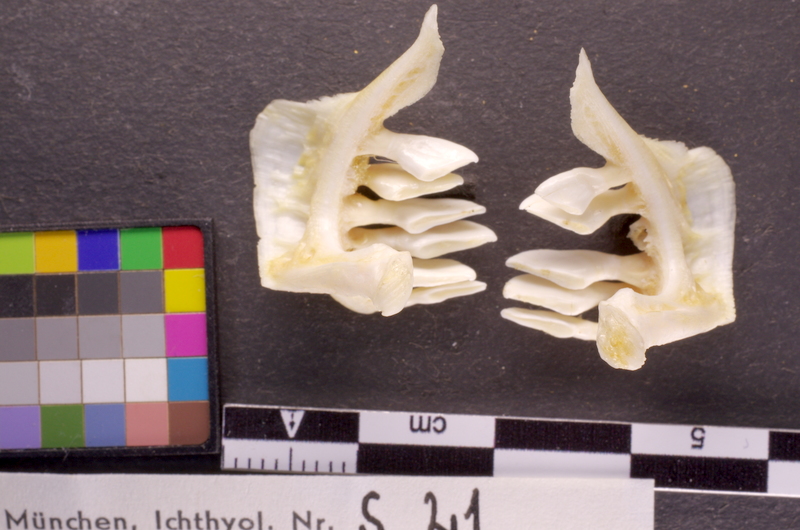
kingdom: Animalia
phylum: Chordata
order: Cypriniformes
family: Cyprinidae
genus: Chondrostoma
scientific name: Chondrostoma nasus
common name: Nase
